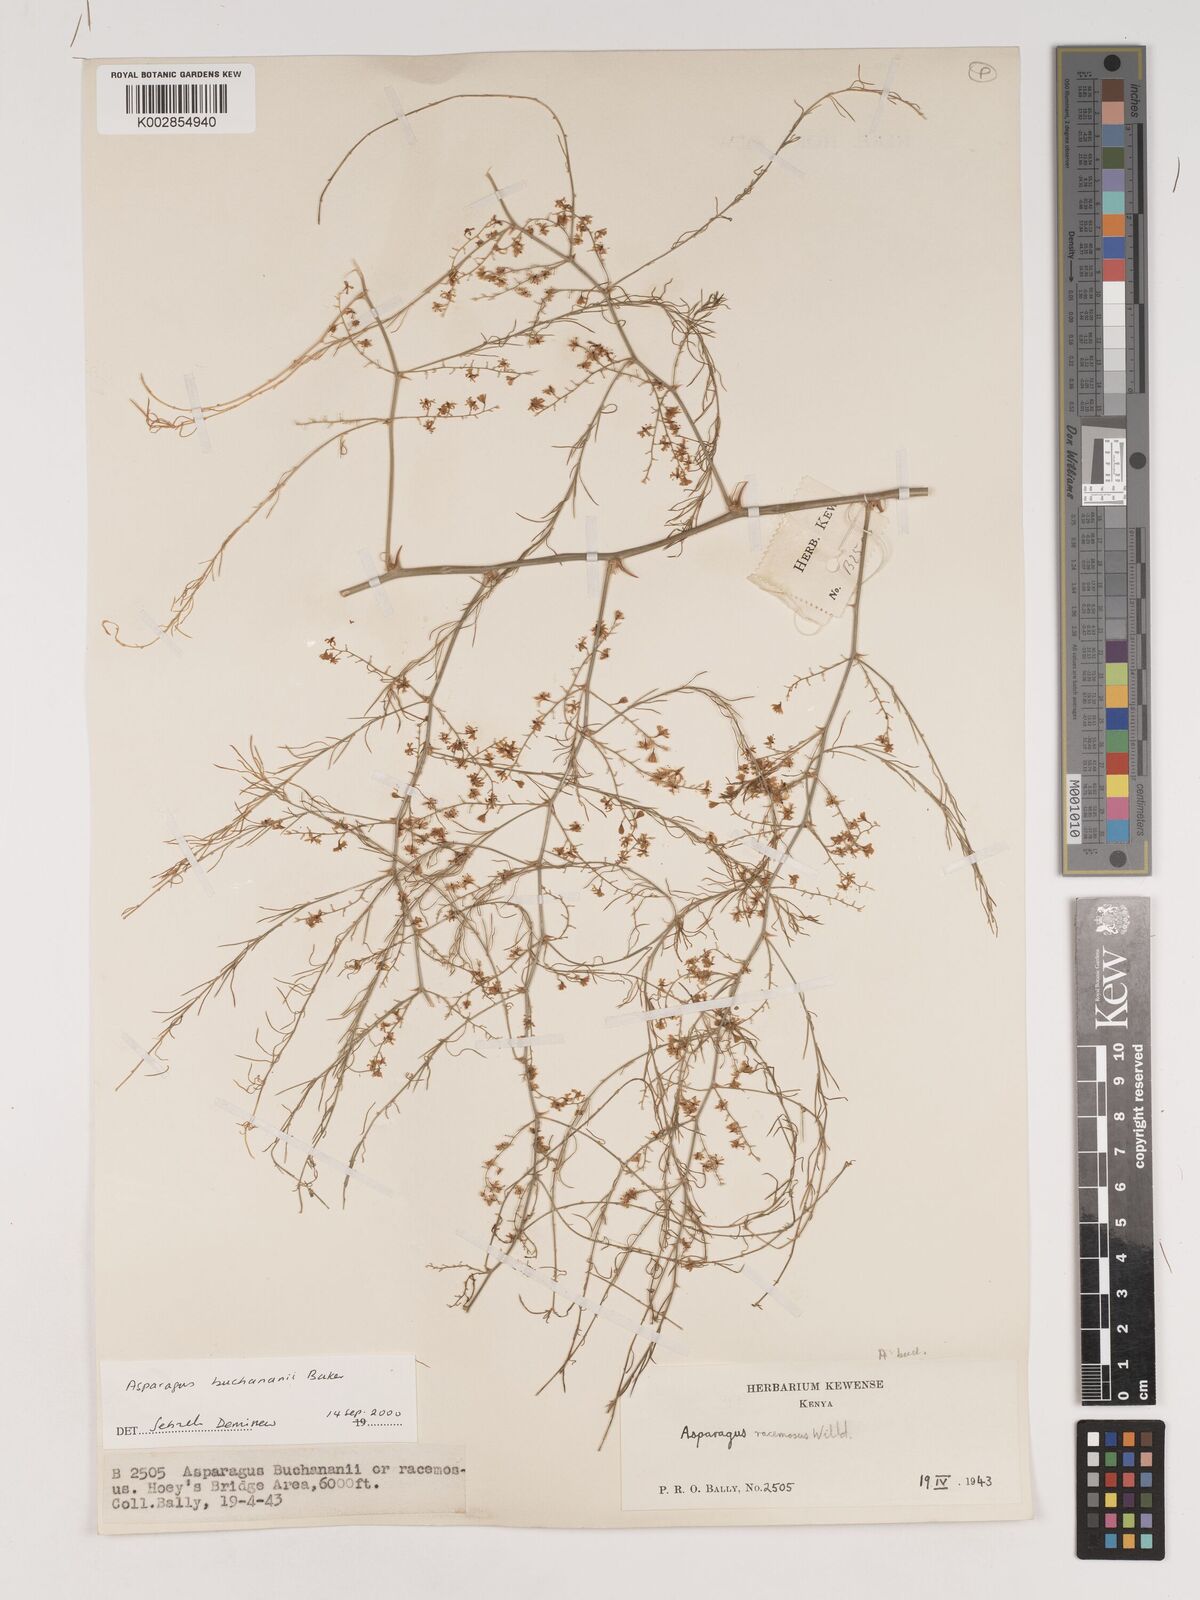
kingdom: Plantae
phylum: Tracheophyta
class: Liliopsida
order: Asparagales
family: Asparagaceae
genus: Asparagus
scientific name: Asparagus buchananii
